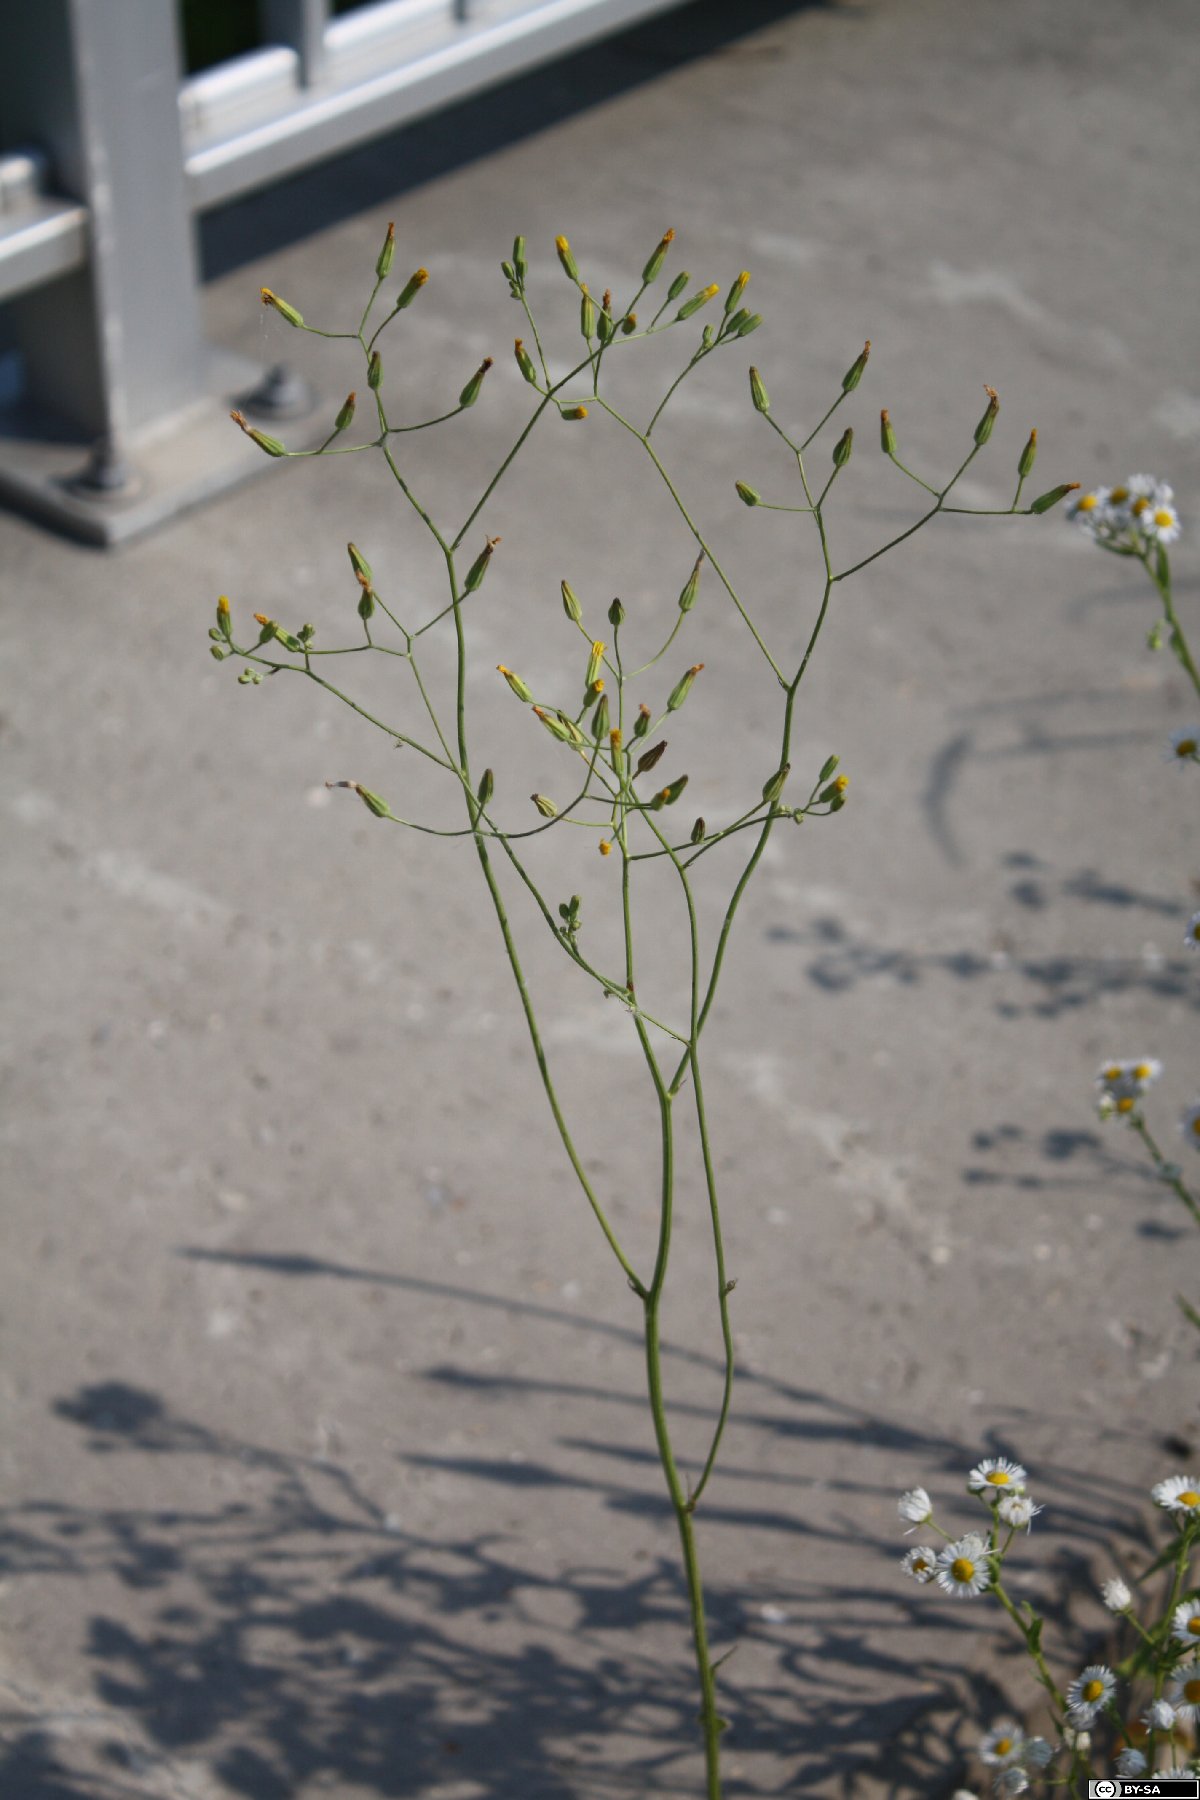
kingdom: Plantae
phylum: Tracheophyta
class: Magnoliopsida
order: Asterales
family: Asteraceae
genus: Crepis
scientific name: Crepis pulchra
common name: Hawk's-beard
